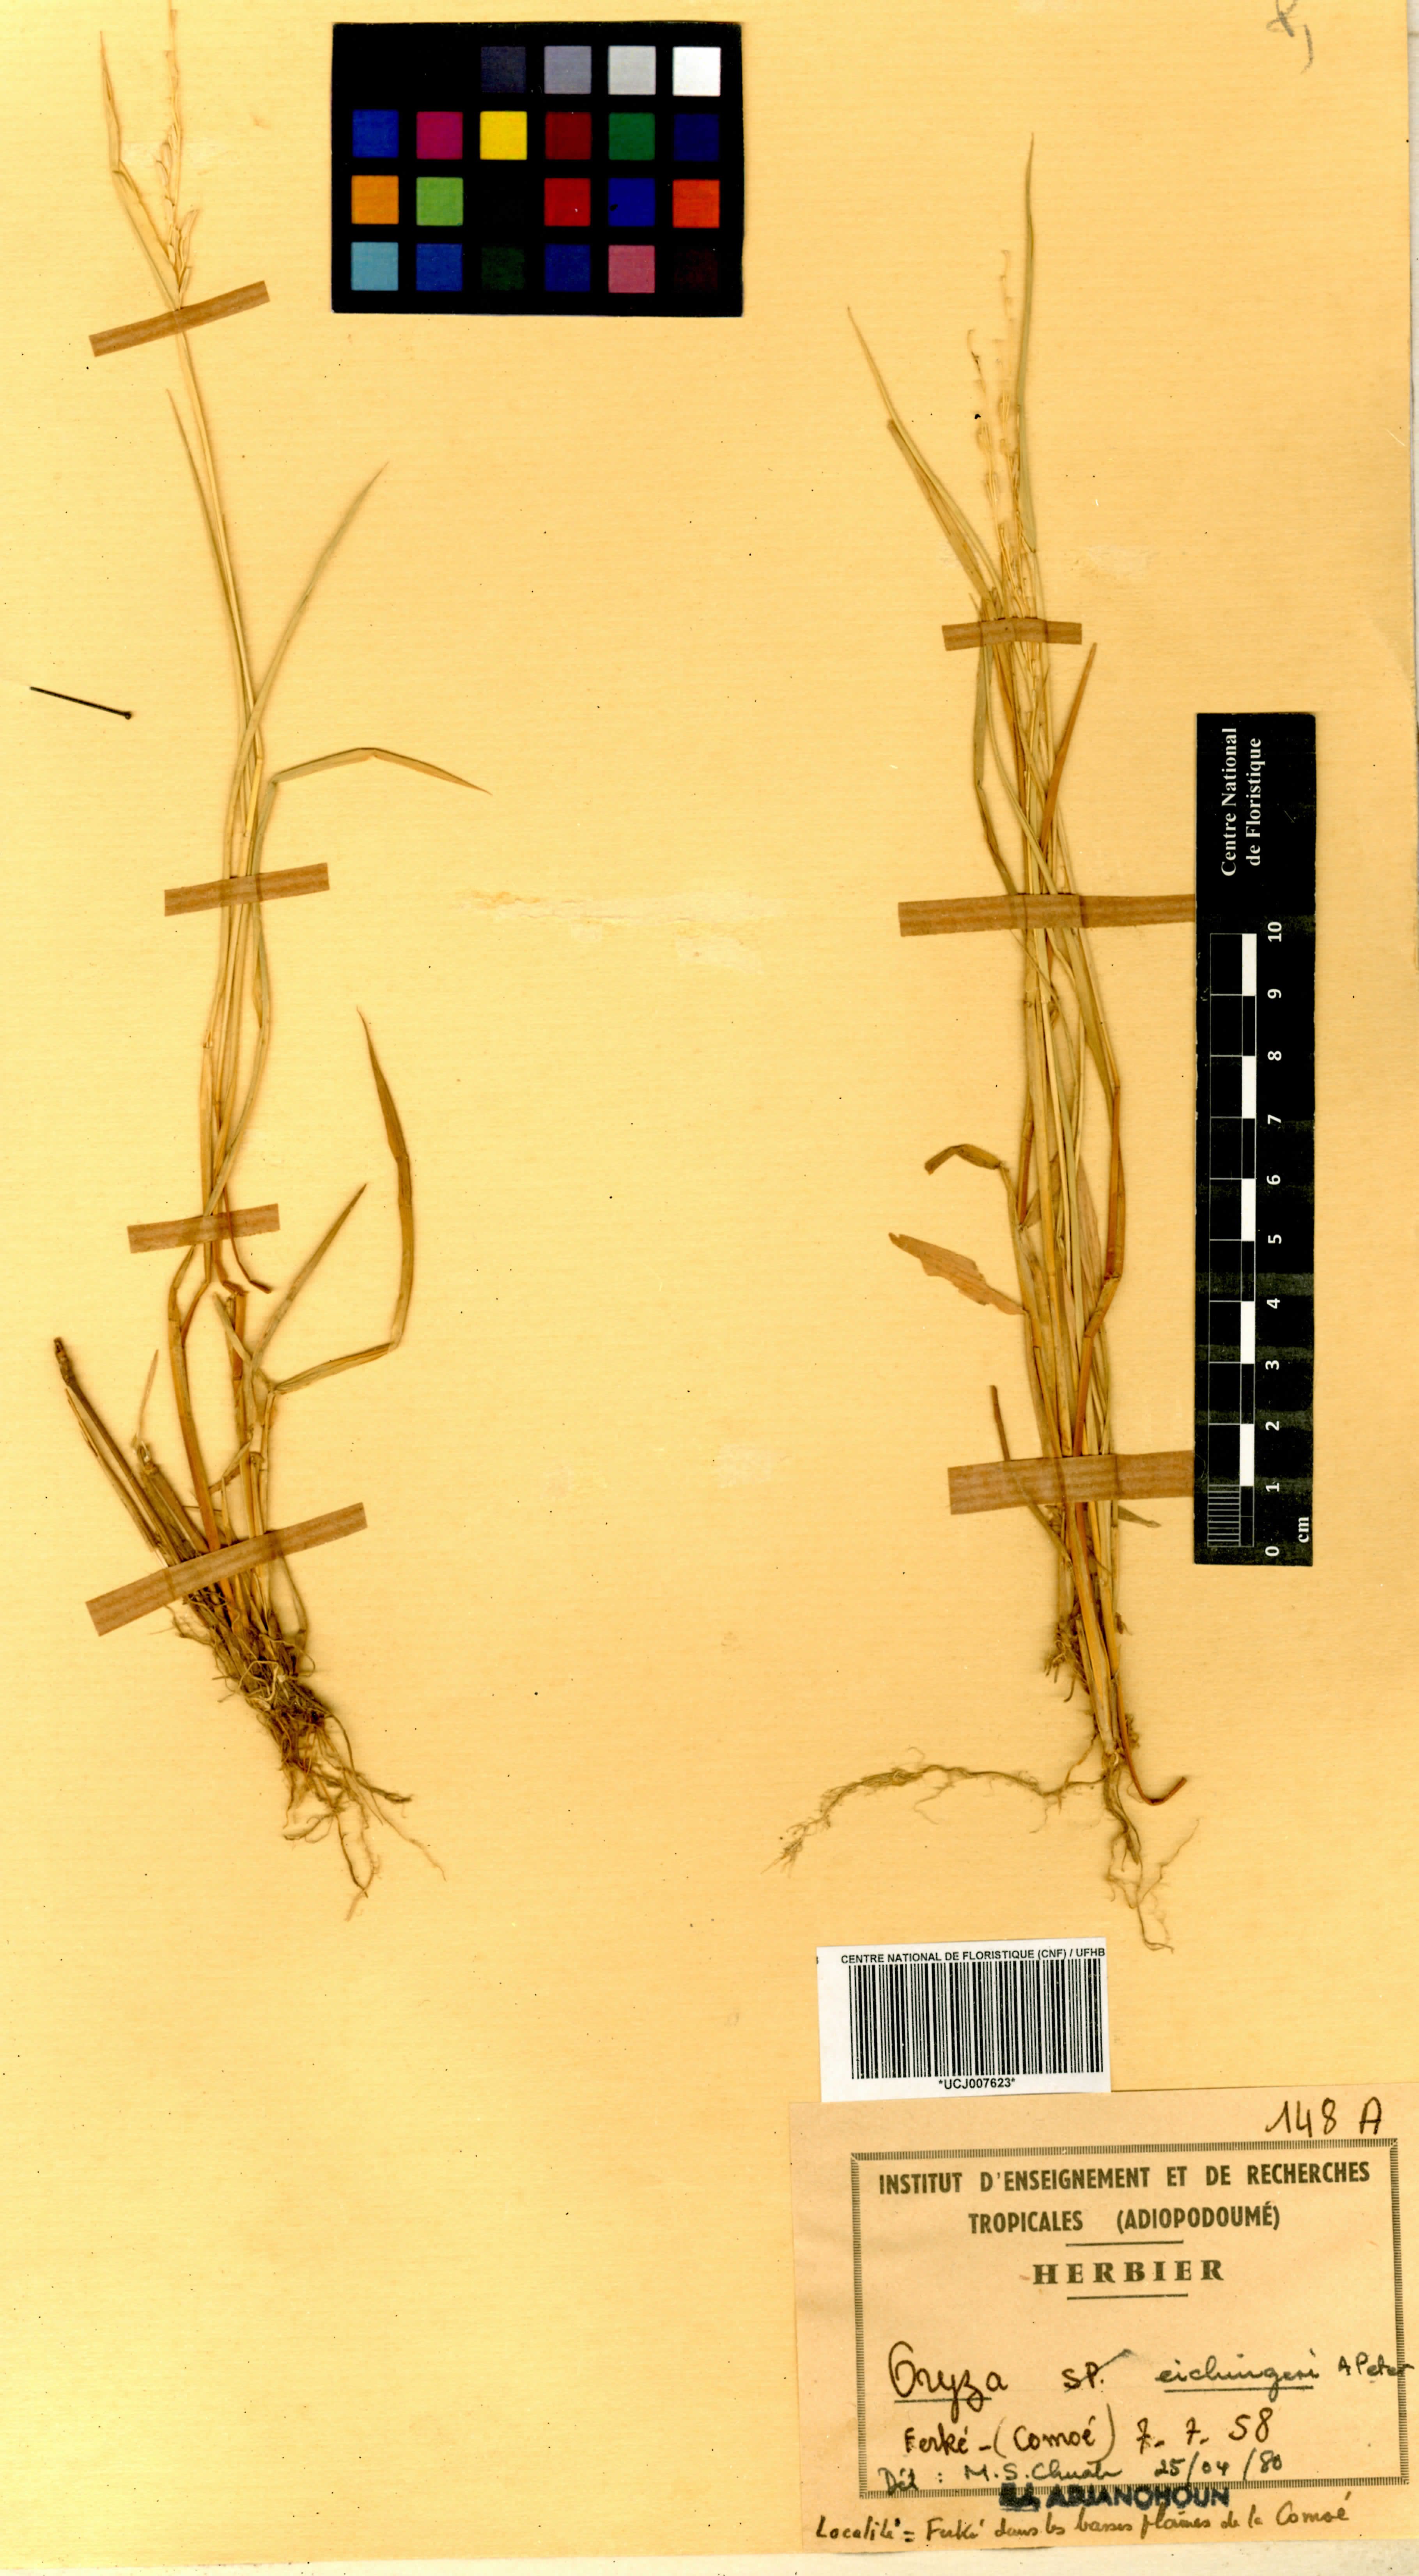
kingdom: Plantae
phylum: Tracheophyta
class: Liliopsida
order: Poales
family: Poaceae
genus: Oryza
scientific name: Oryza eichingeri
